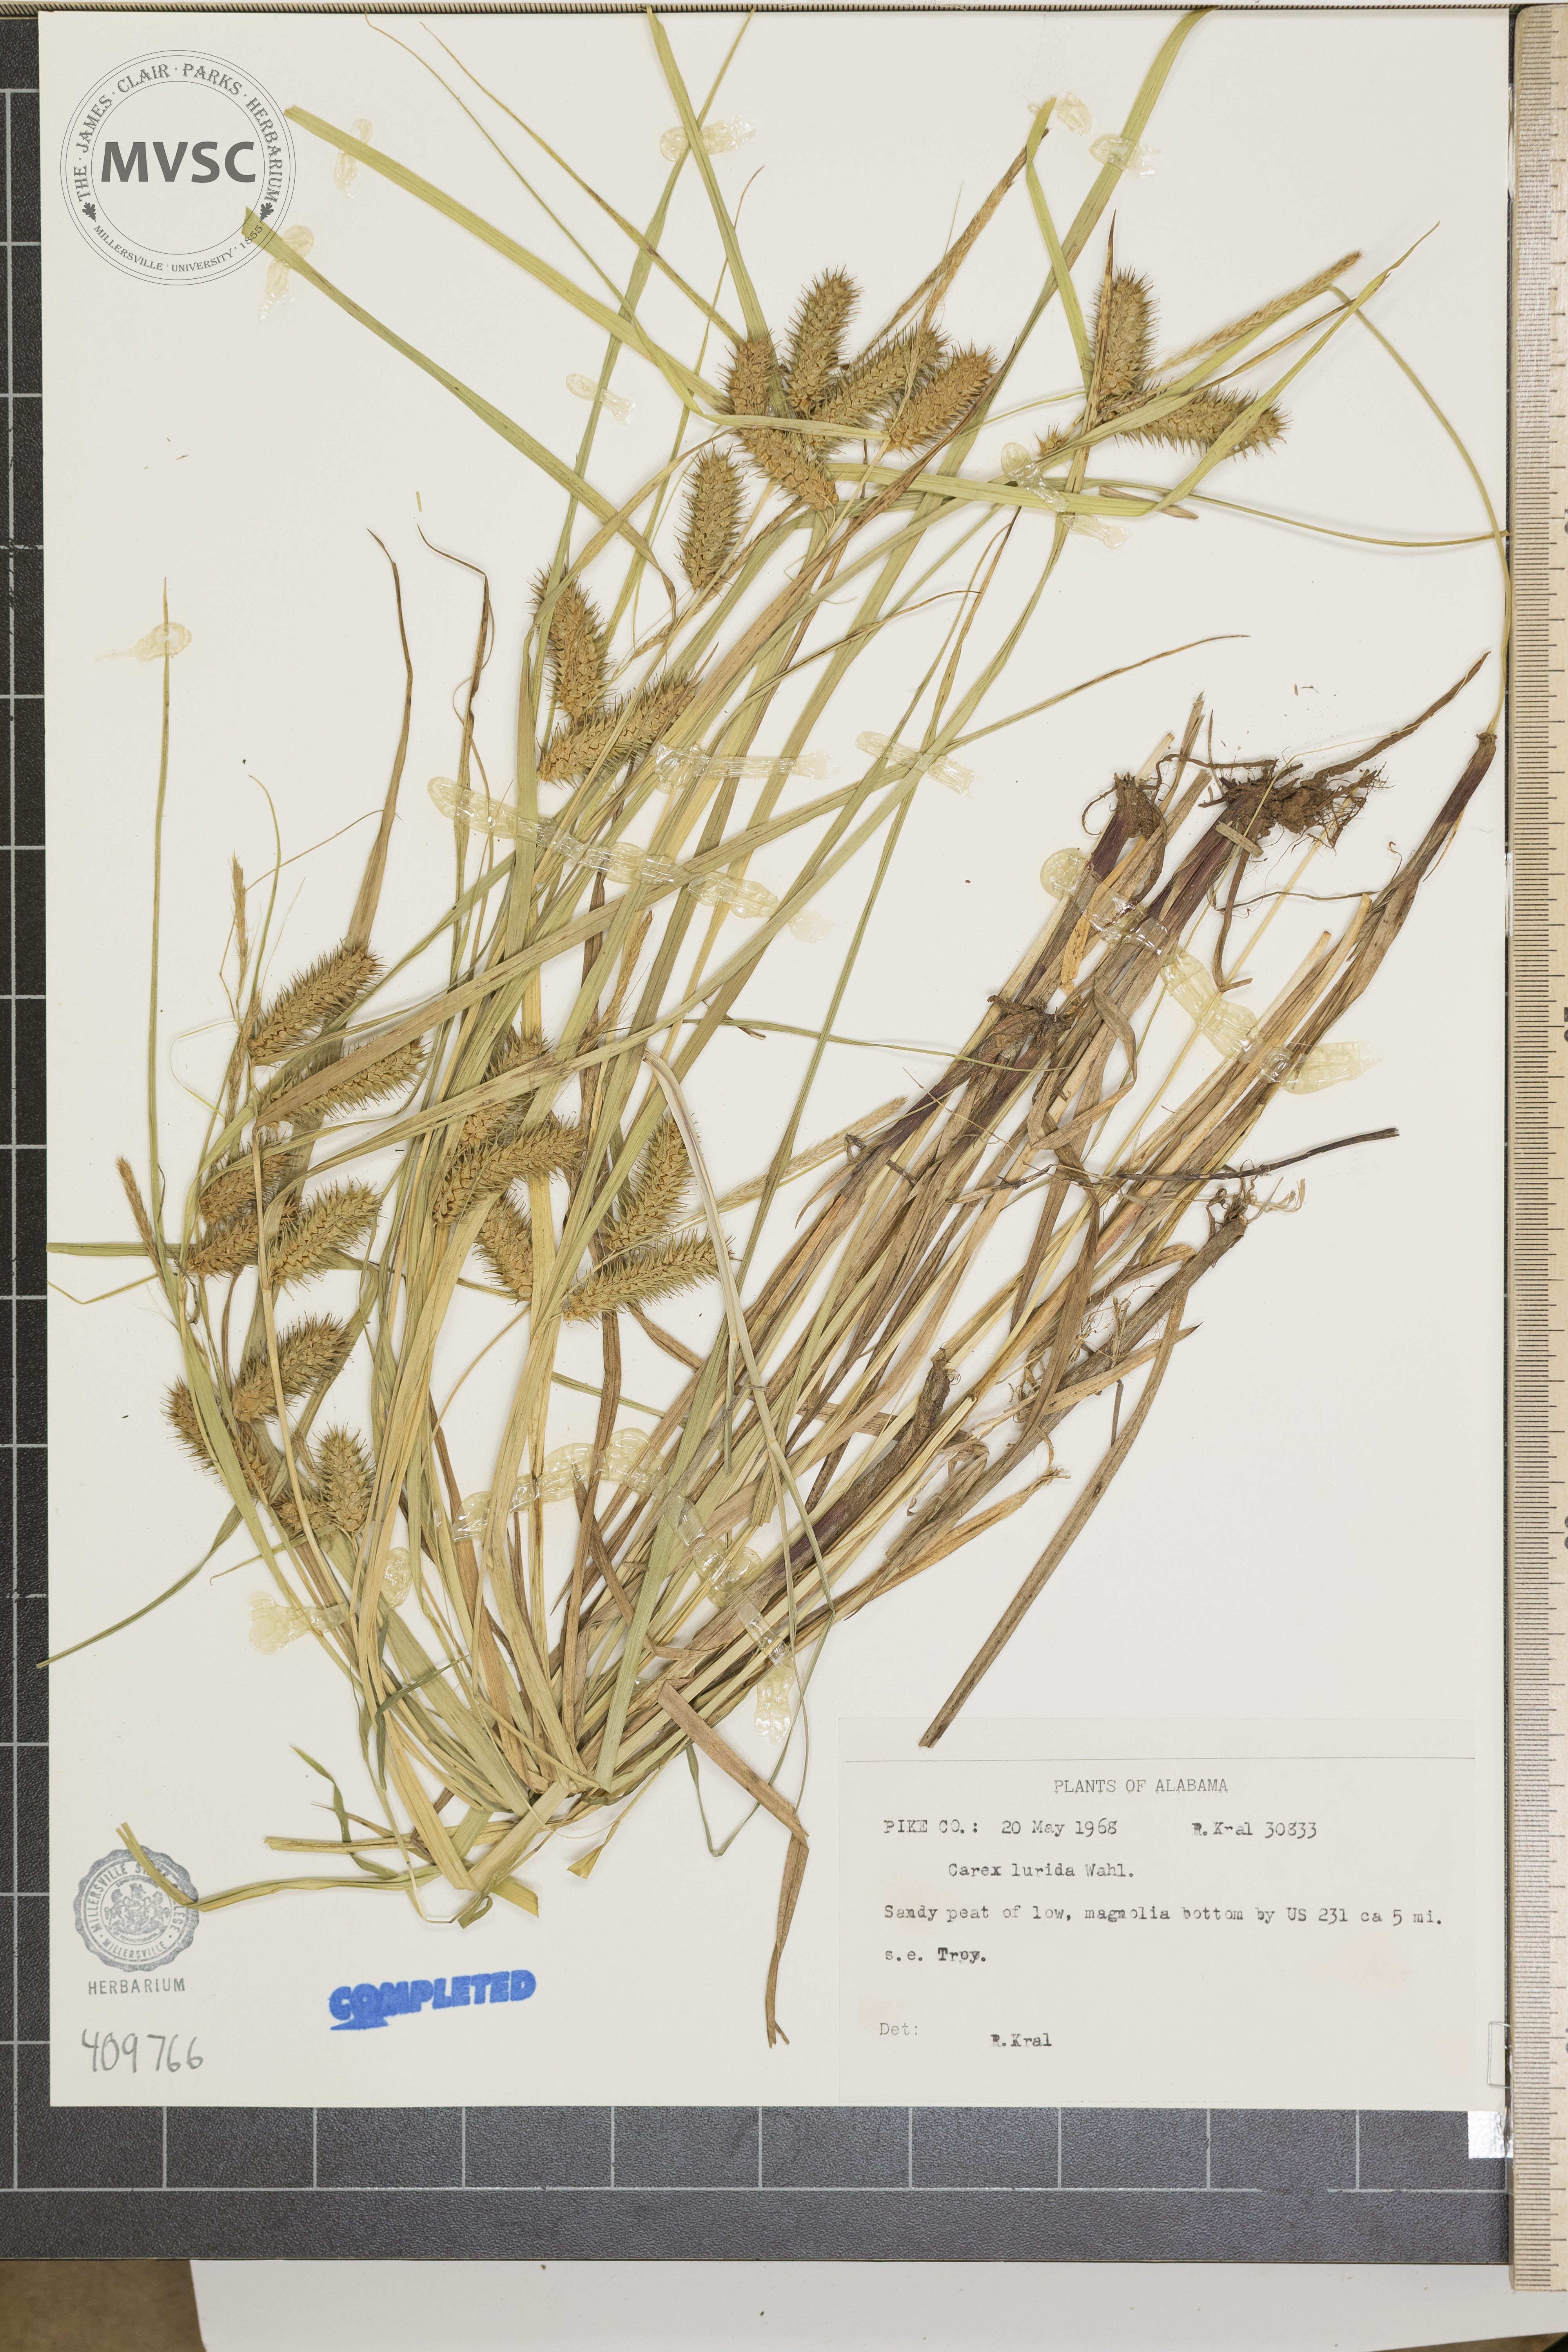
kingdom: Plantae
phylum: Tracheophyta
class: Liliopsida
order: Poales
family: Cyperaceae
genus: Carex
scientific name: Carex lurida
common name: Sallow sedge
